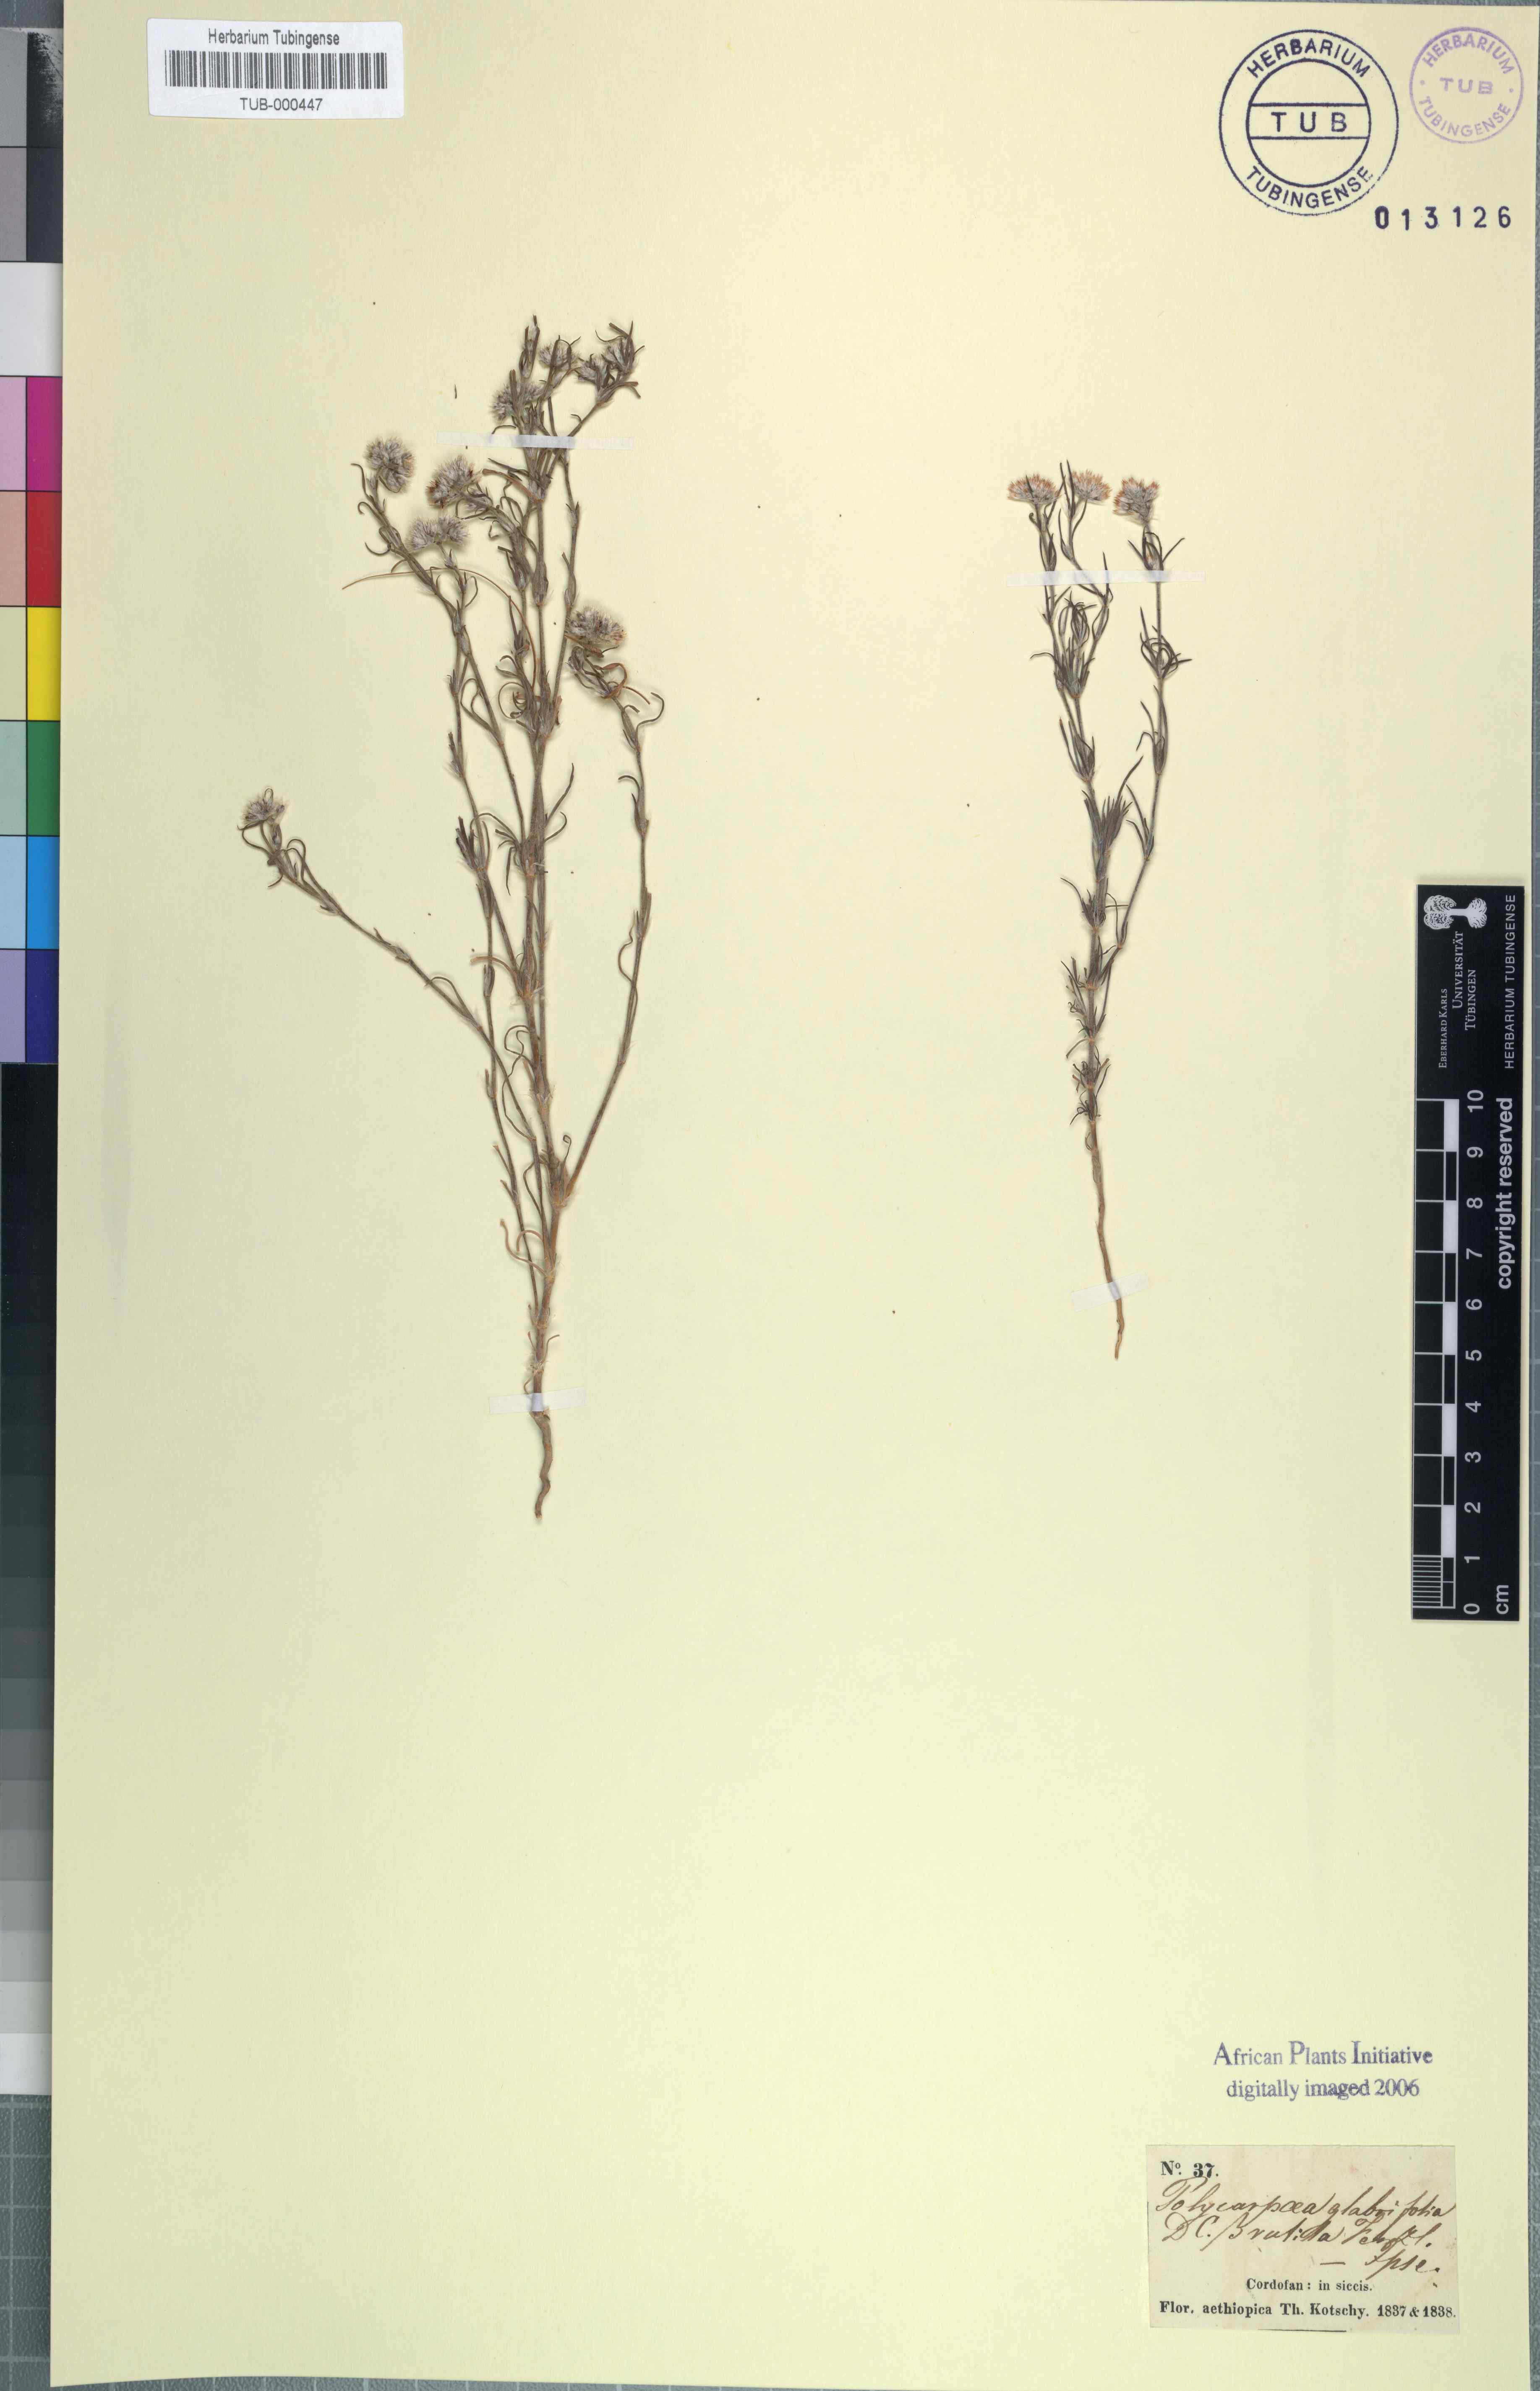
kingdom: Plantae
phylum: Tracheophyta
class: Magnoliopsida
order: Caryophyllales
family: Caryophyllaceae
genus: Polycarpaea
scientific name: Polycarpaea latifolia
